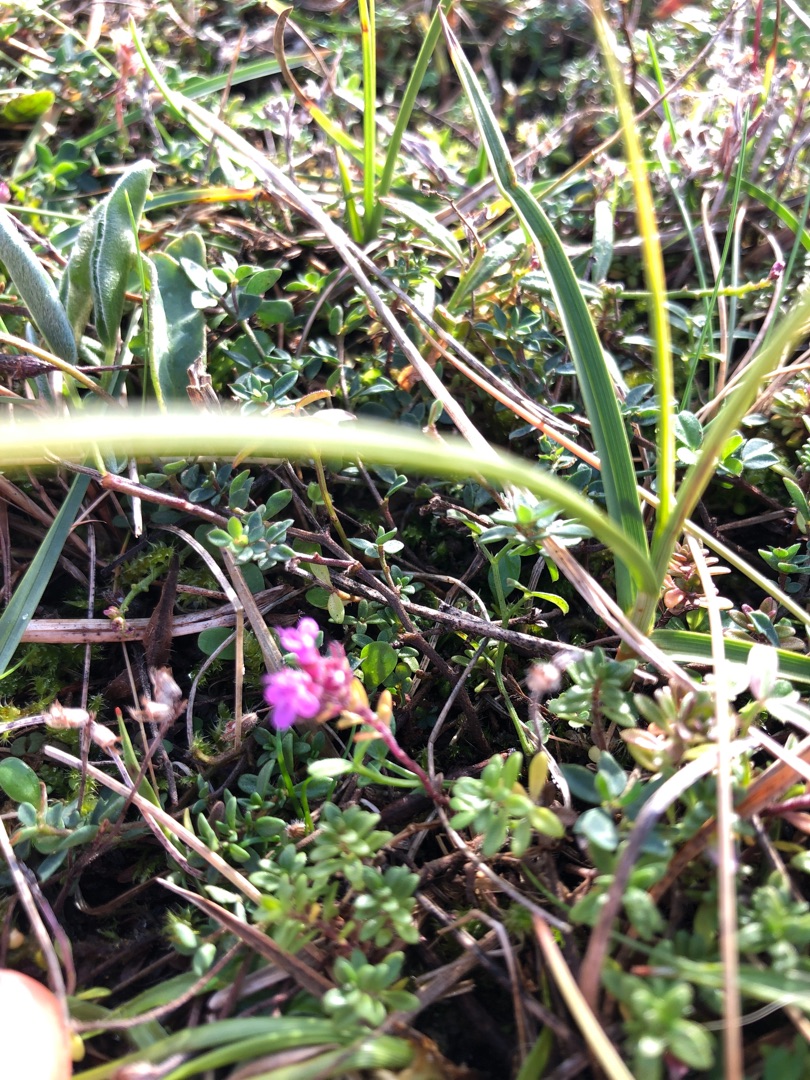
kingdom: Plantae
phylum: Tracheophyta
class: Magnoliopsida
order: Lamiales
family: Lamiaceae
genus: Thymus
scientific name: Thymus serpyllum
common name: Smalbladet timian
